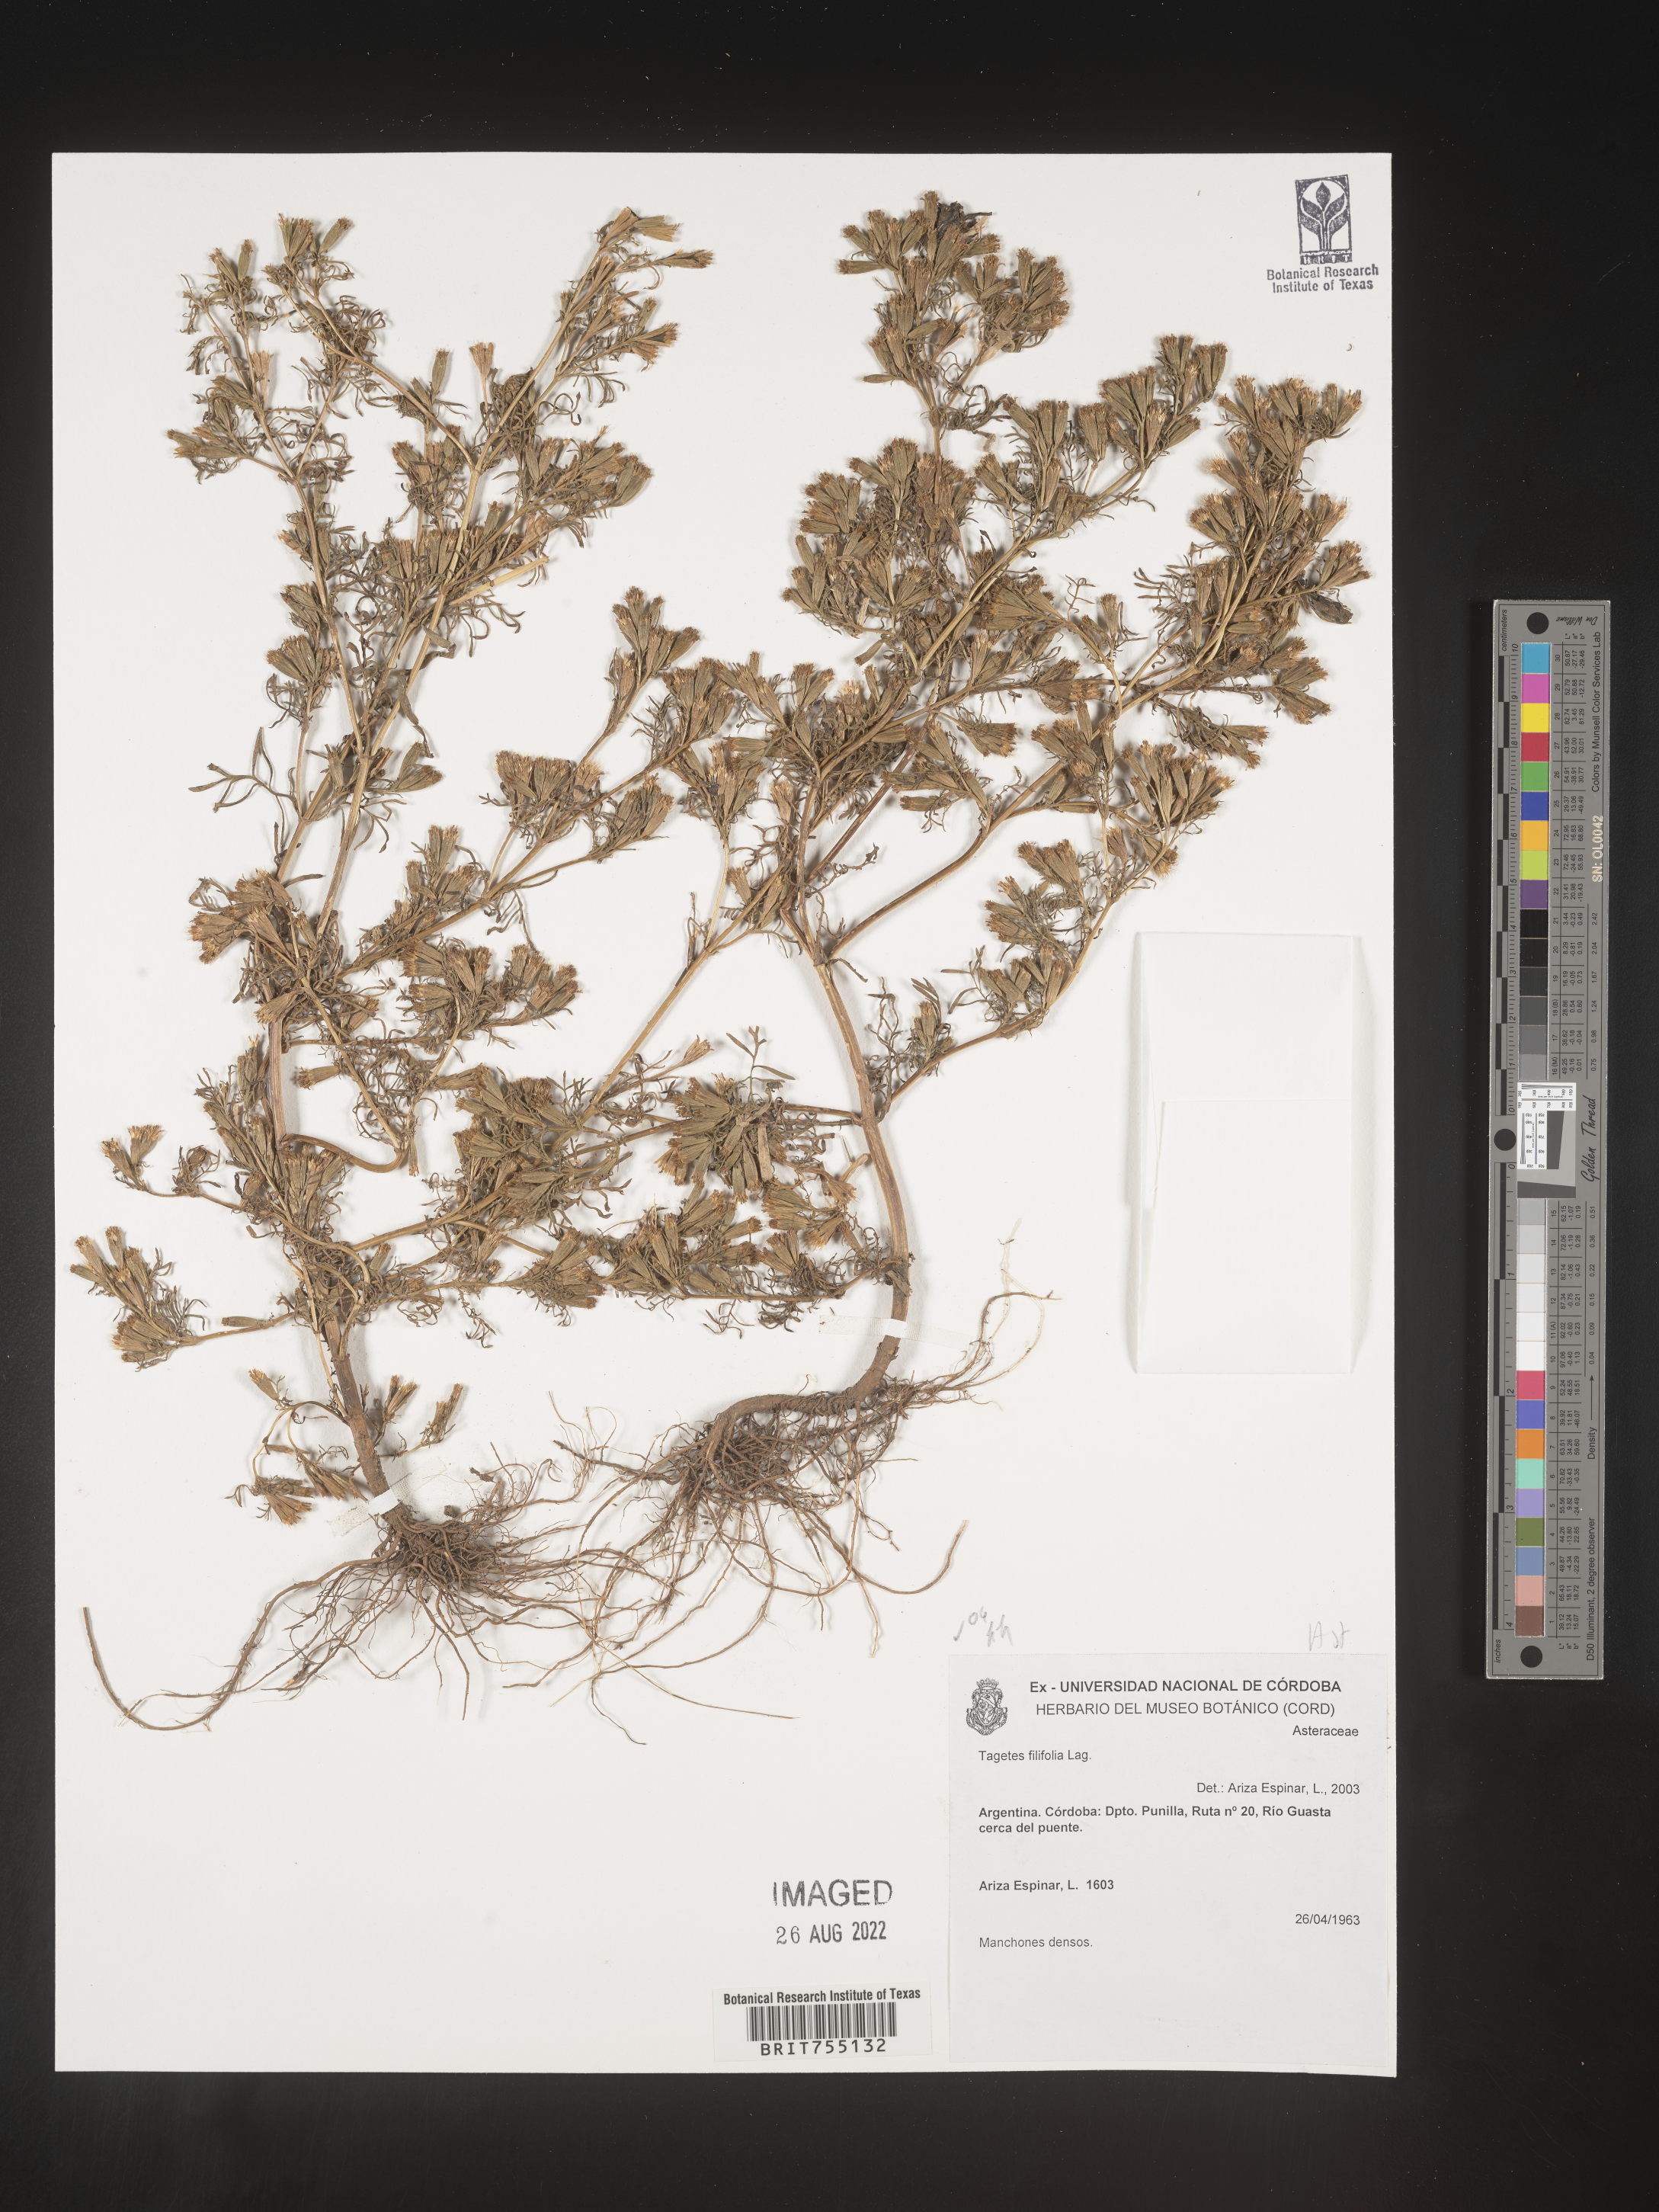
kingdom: Plantae
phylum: Tracheophyta
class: Magnoliopsida
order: Asterales
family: Asteraceae
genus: Tagetes
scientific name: Tagetes
